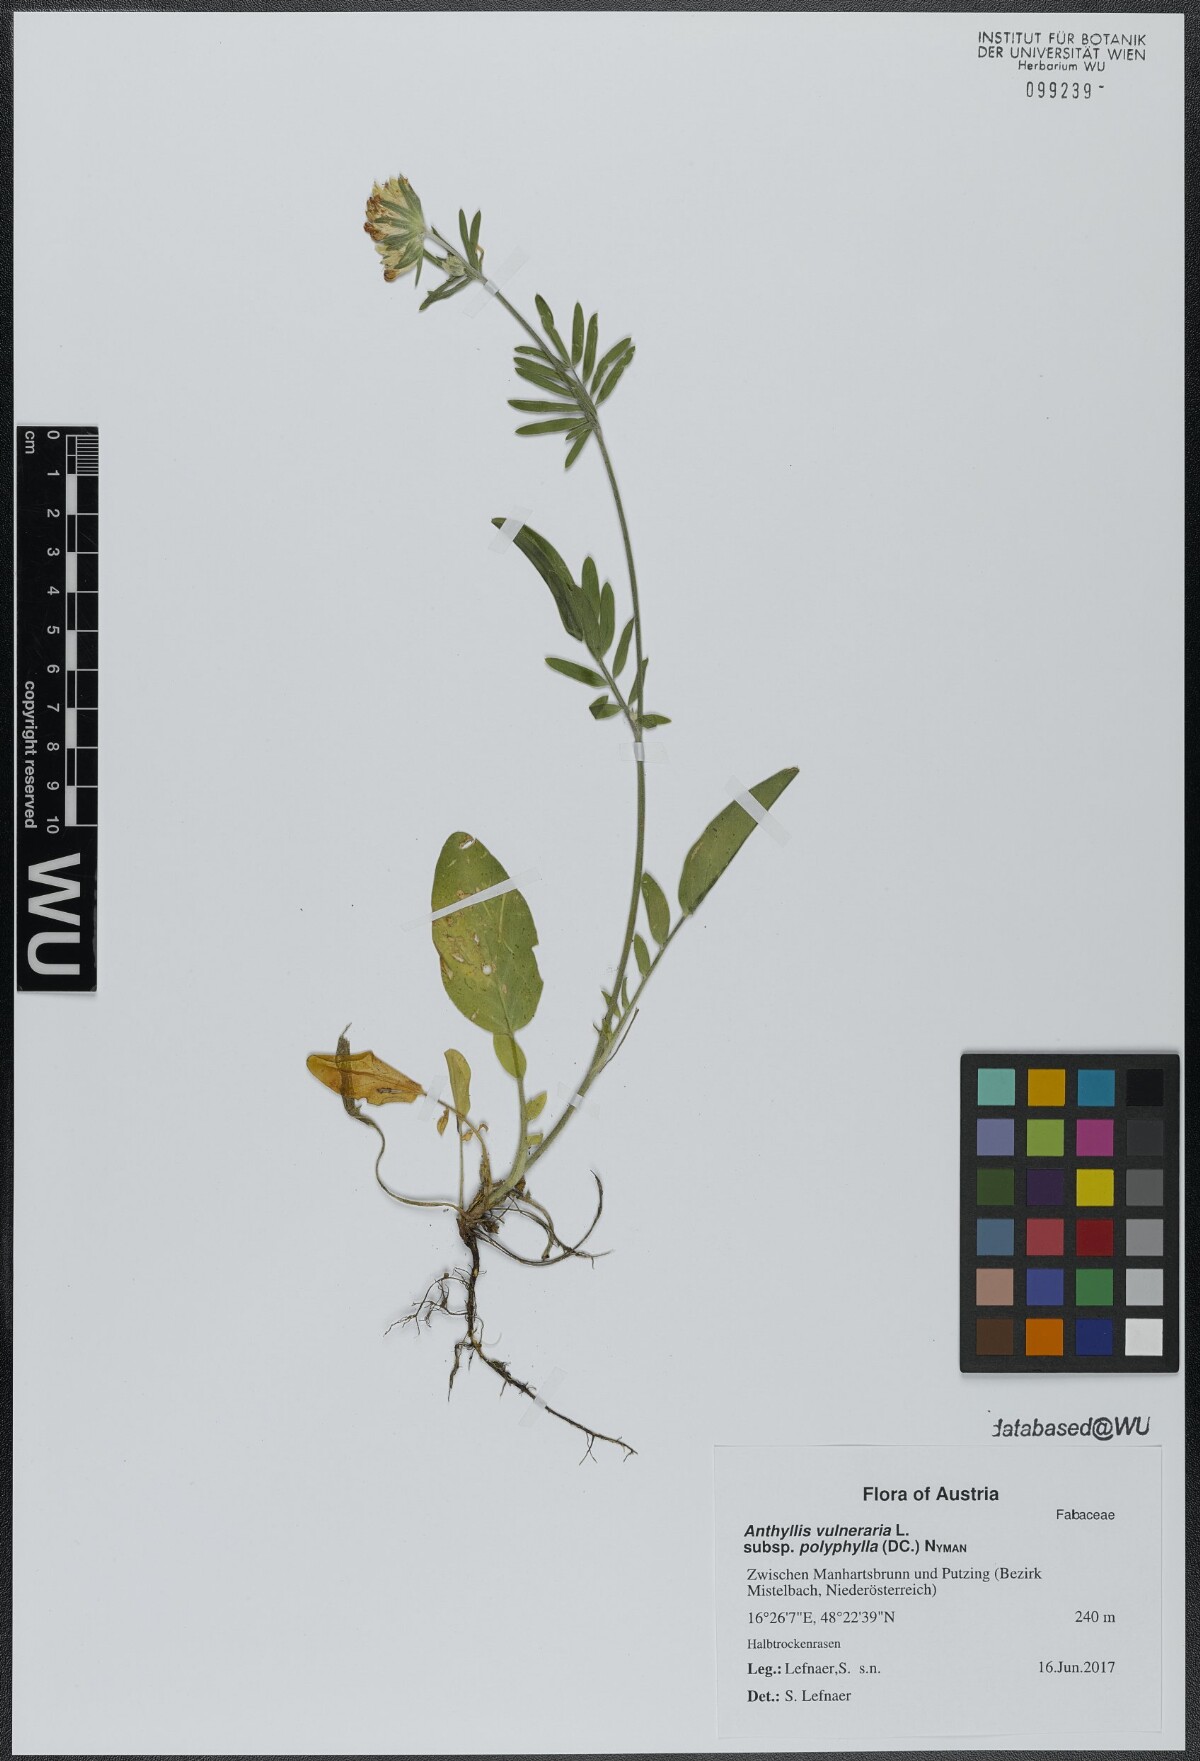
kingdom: Plantae
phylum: Tracheophyta
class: Magnoliopsida
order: Fabales
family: Fabaceae
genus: Anthyllis
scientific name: Anthyllis vulneraria
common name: Kidney vetch
